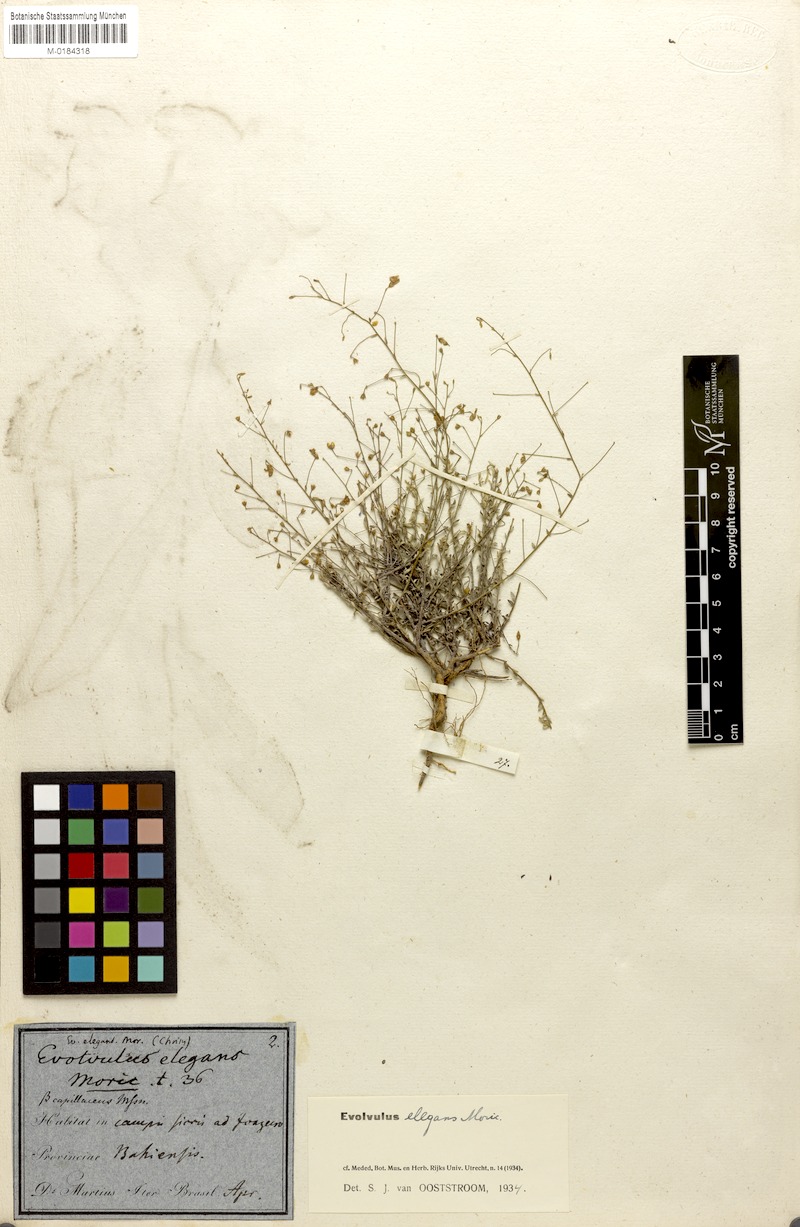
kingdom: Plantae
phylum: Tracheophyta
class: Magnoliopsida
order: Solanales
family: Convolvulaceae
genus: Evolvulus
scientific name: Evolvulus elegans
